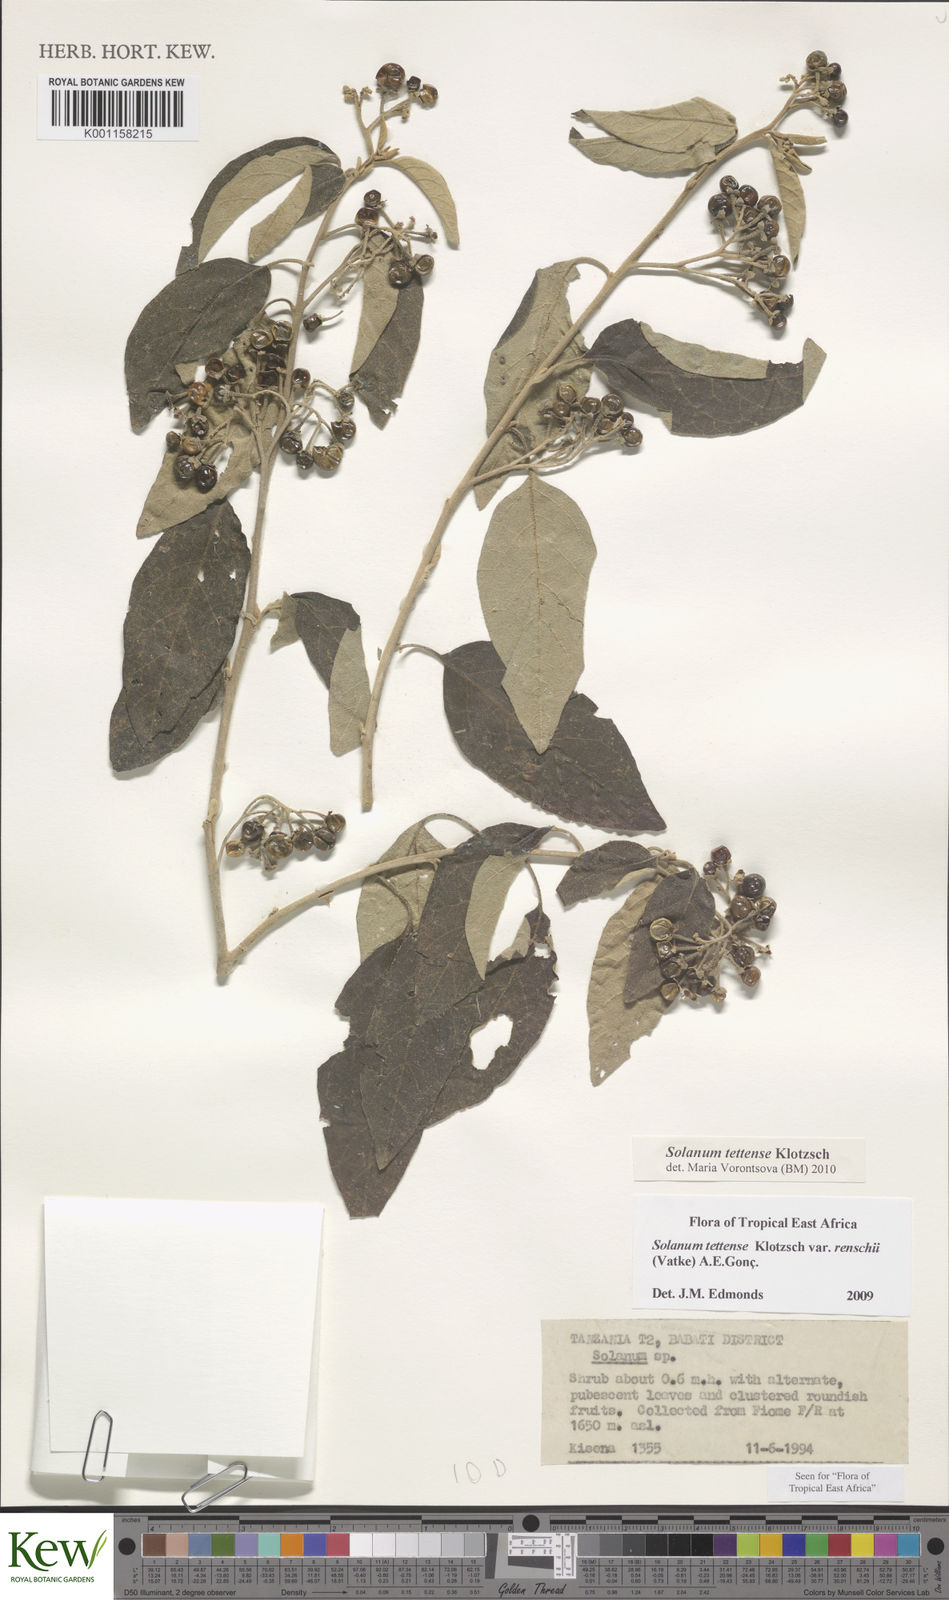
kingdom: Plantae
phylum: Tracheophyta
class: Magnoliopsida
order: Solanales
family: Solanaceae
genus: Solanum
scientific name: Solanum tettense
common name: Mozambique bitter apple
